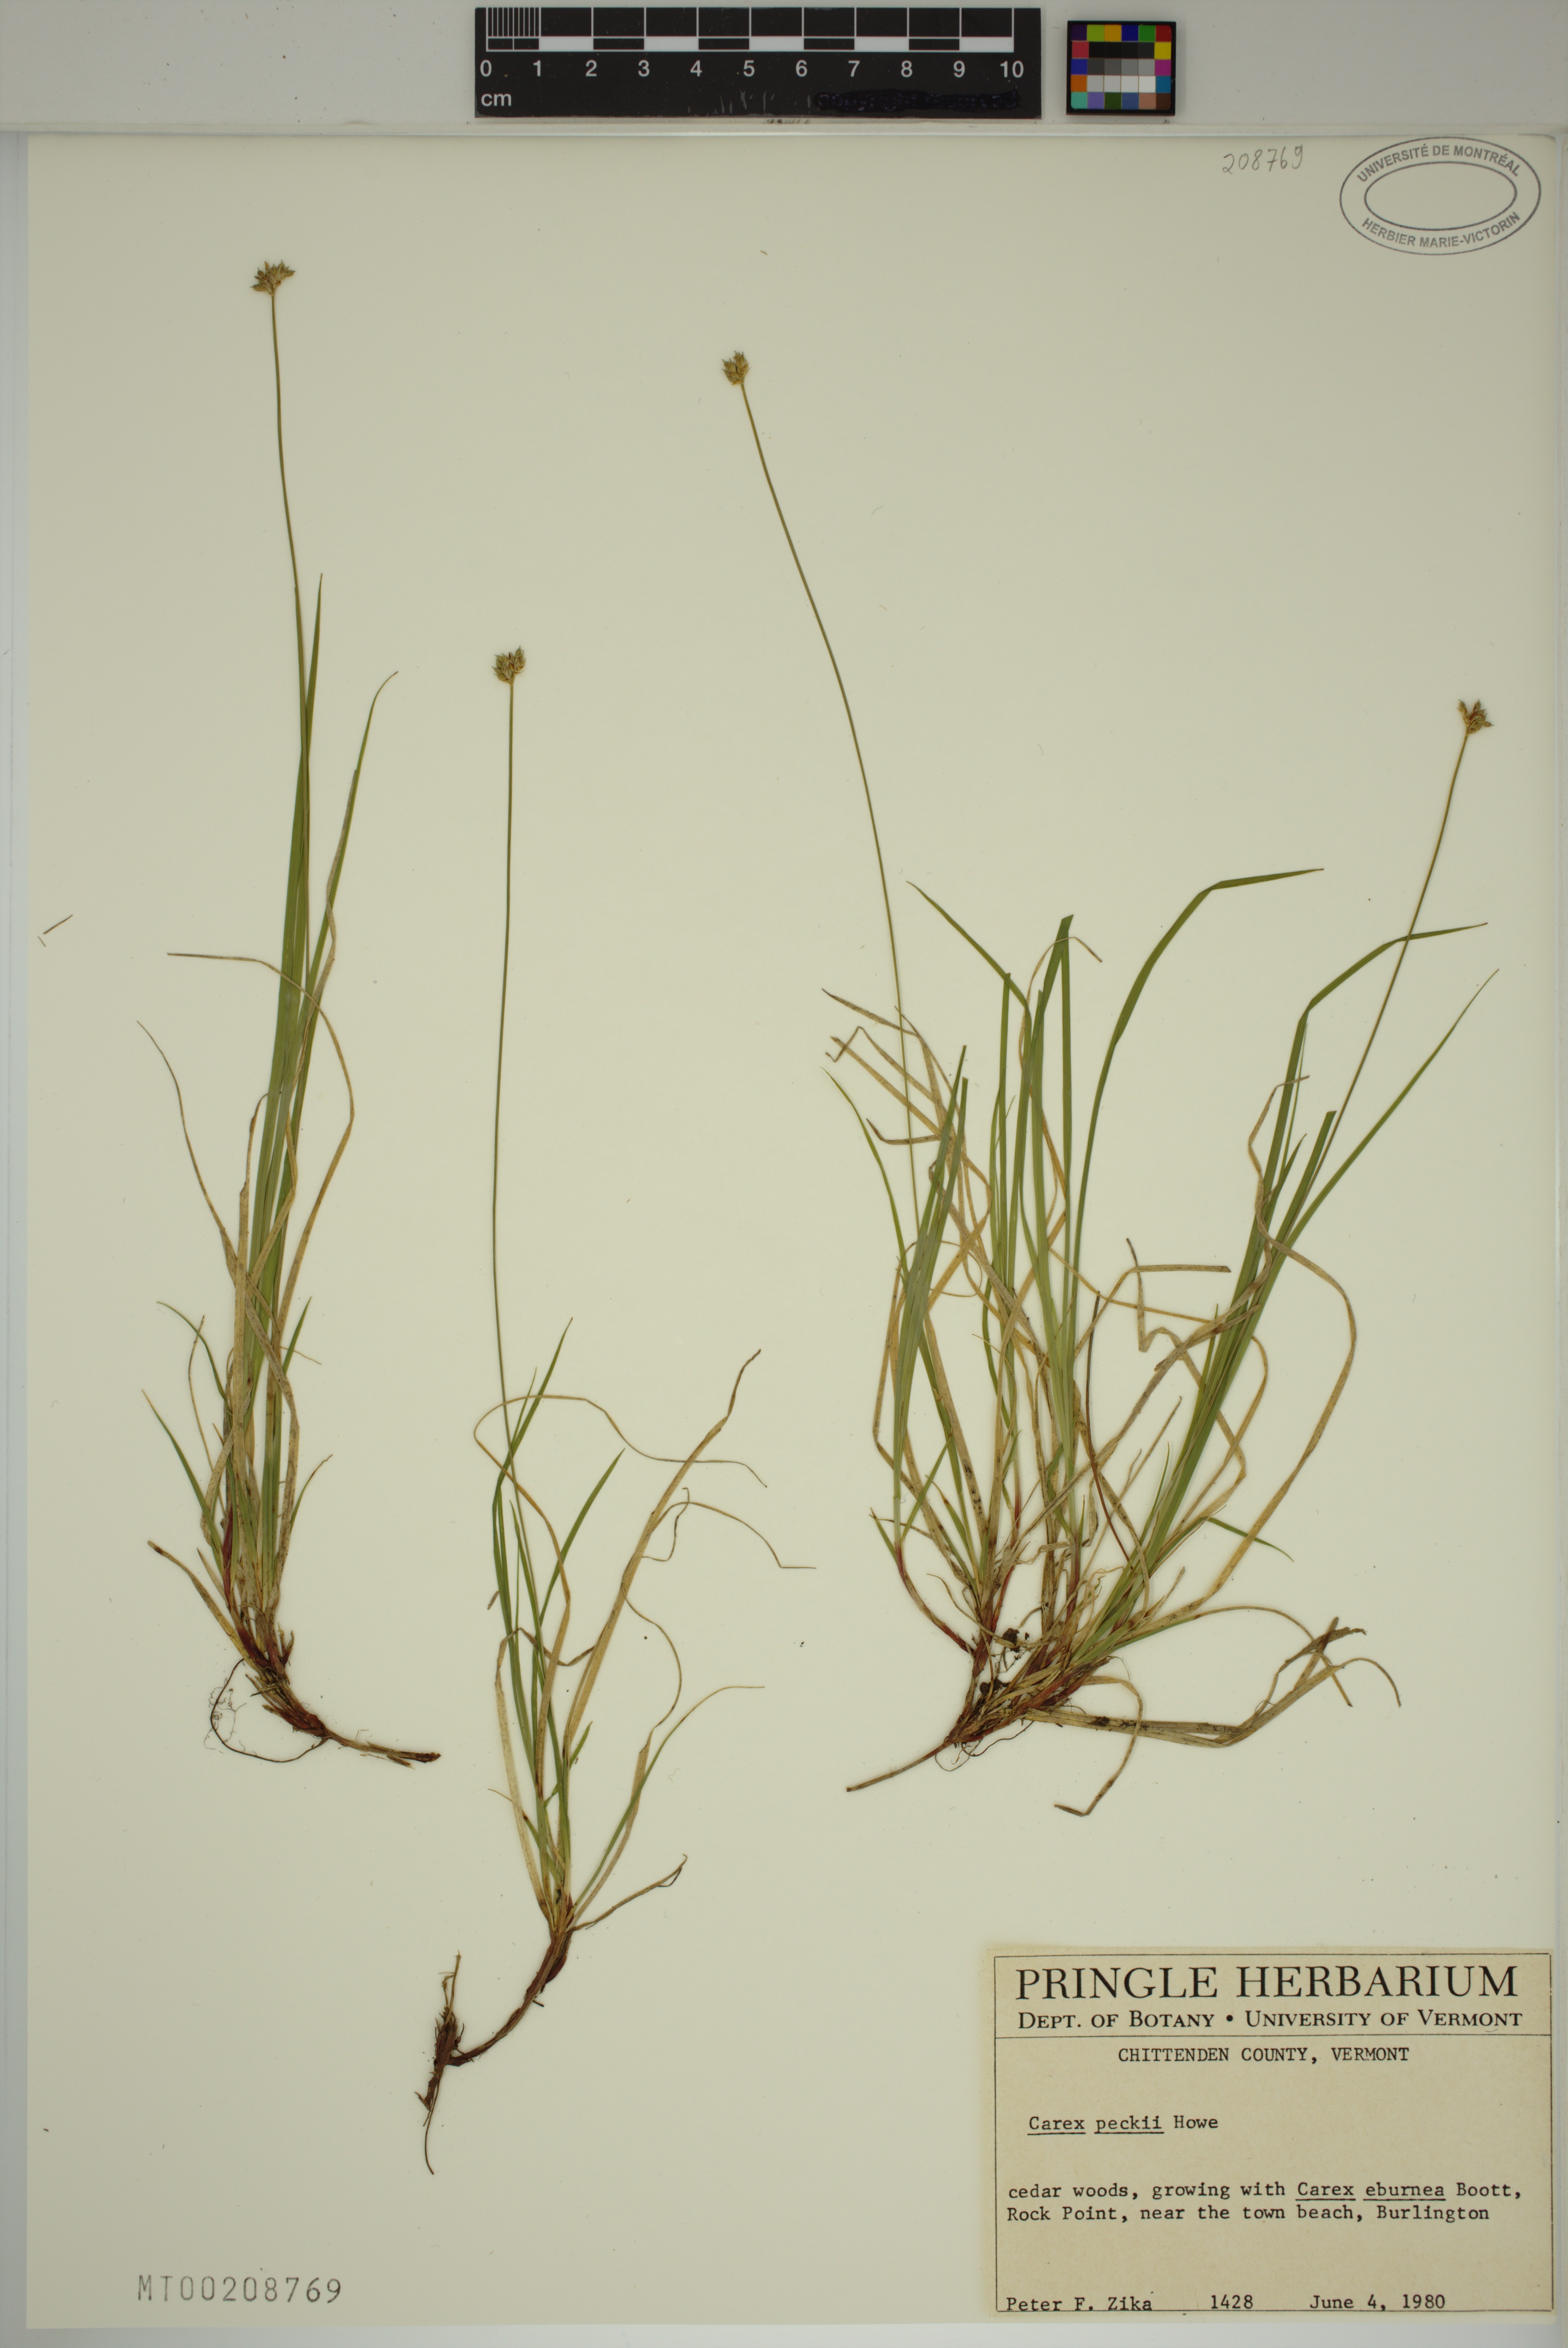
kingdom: Plantae
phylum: Tracheophyta
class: Liliopsida
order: Poales
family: Cyperaceae
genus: Carex
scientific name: Carex peckii
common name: Peck's oak sedge
